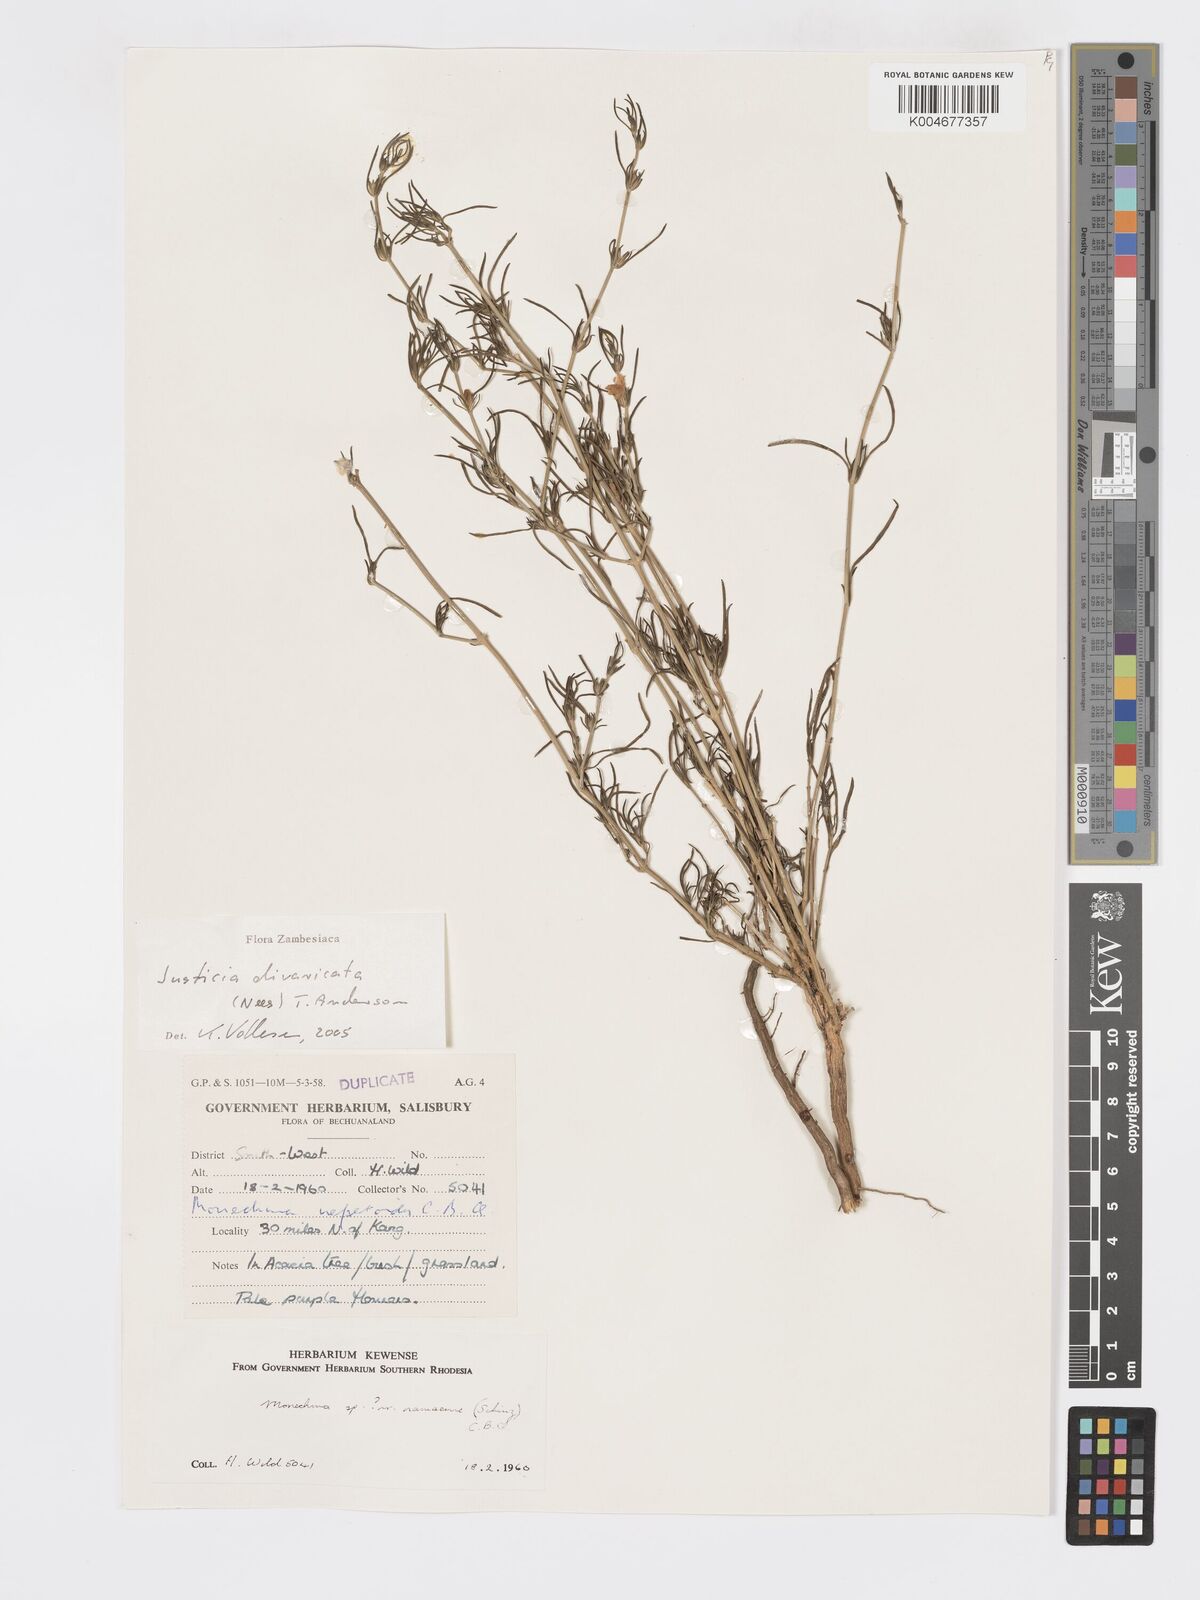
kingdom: Plantae
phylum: Tracheophyta
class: Magnoliopsida
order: Lamiales
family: Acanthaceae
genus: Pogonospermum
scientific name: Pogonospermum
